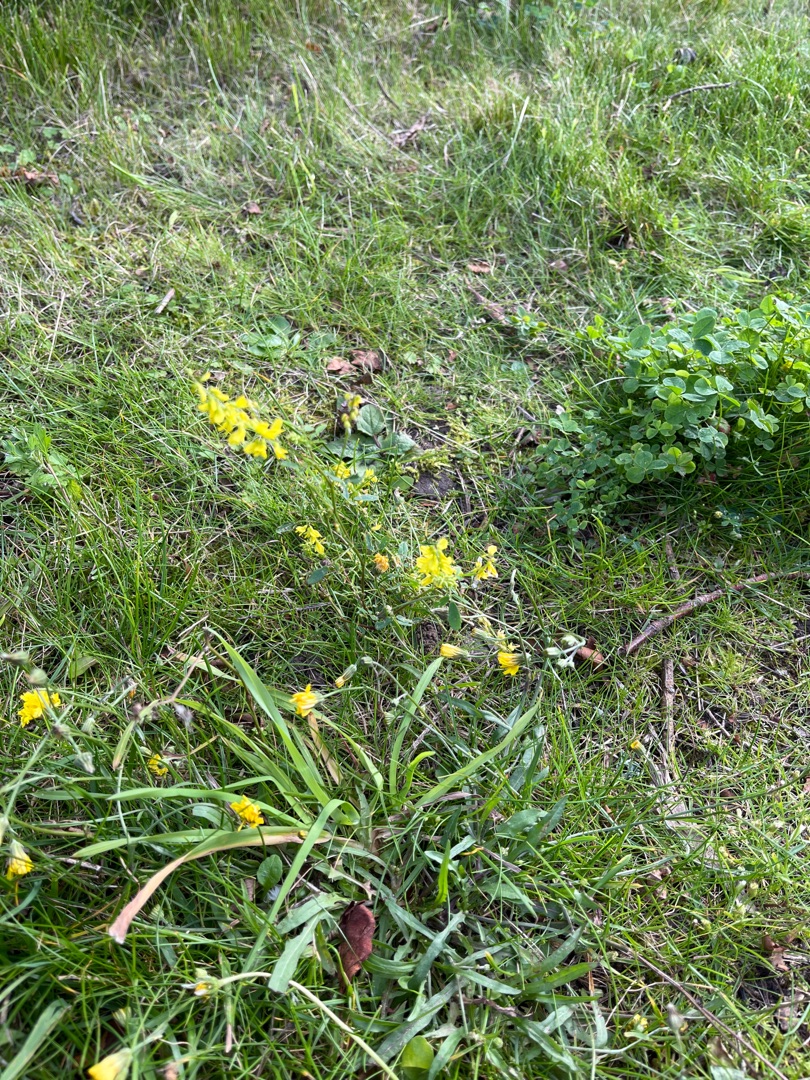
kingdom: Plantae
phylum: Tracheophyta
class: Magnoliopsida
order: Fabales
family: Fabaceae
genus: Melilotus
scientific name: Melilotus
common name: Stenkløverslægten
